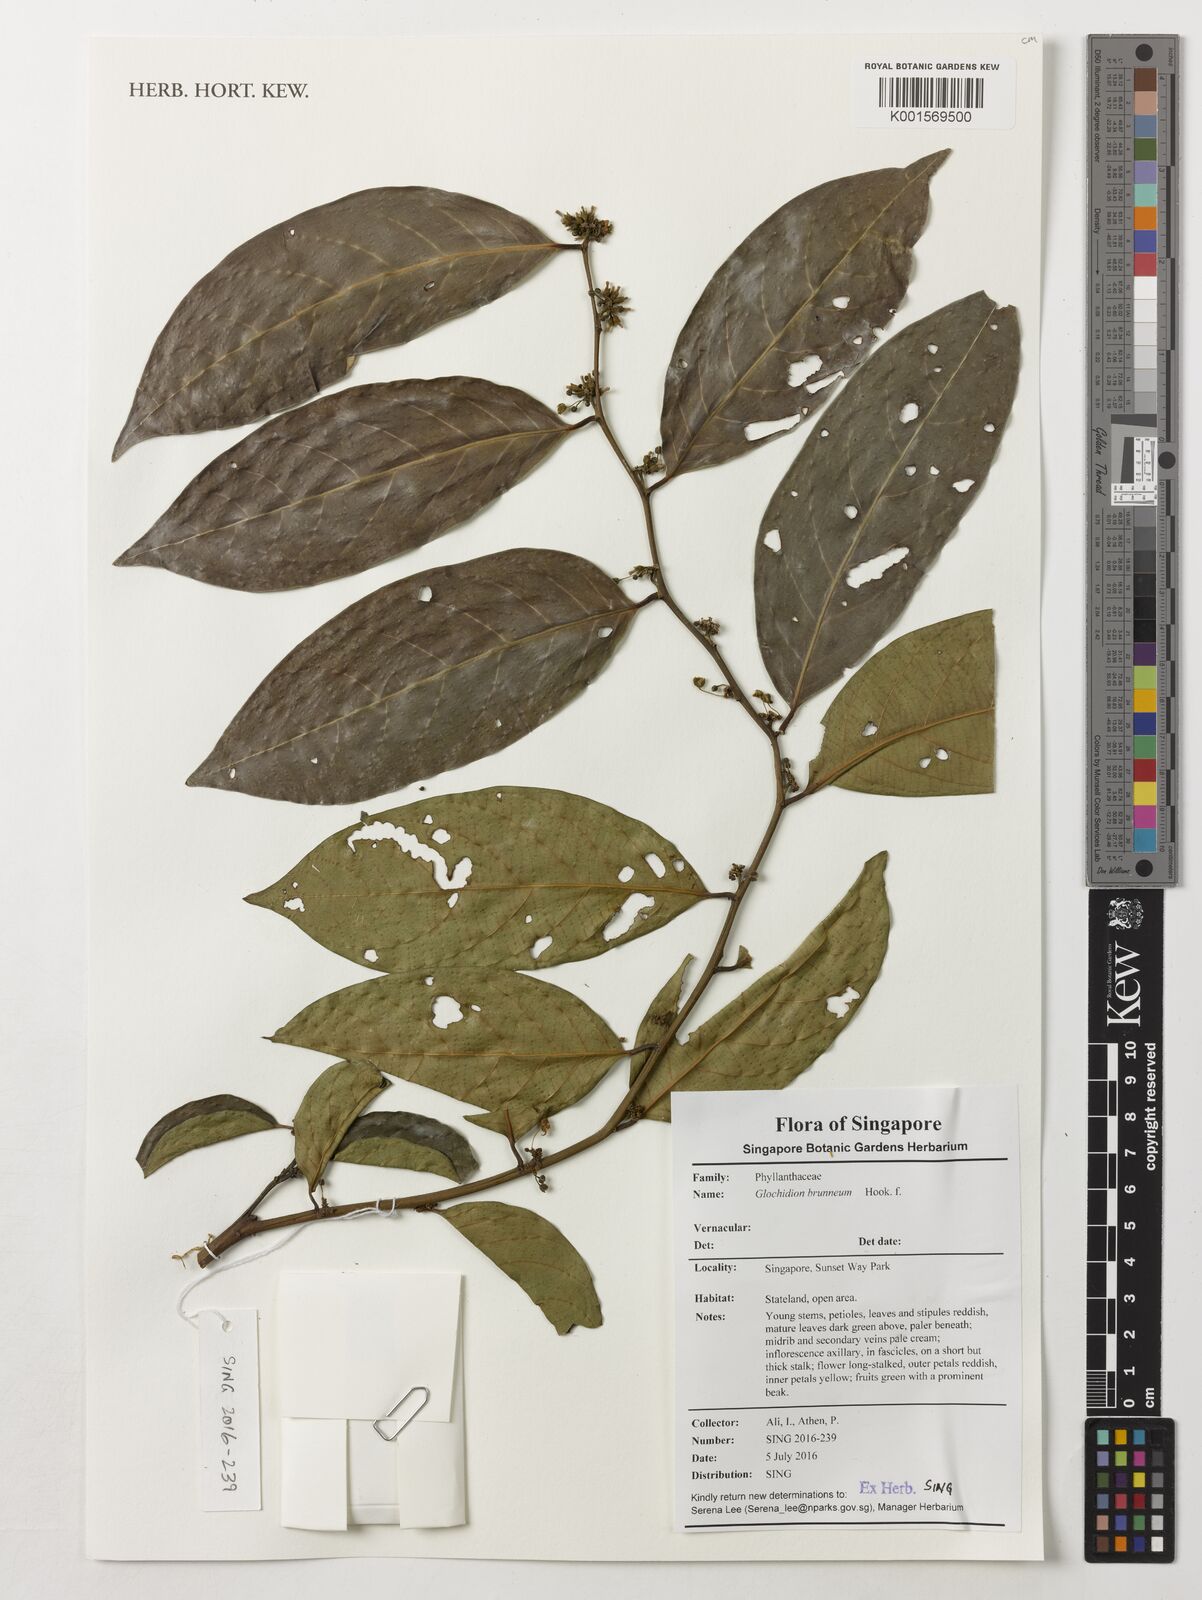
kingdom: Plantae
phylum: Tracheophyta
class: Magnoliopsida
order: Malpighiales
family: Phyllanthaceae
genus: Glochidion
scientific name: Glochidion zeylanicum
